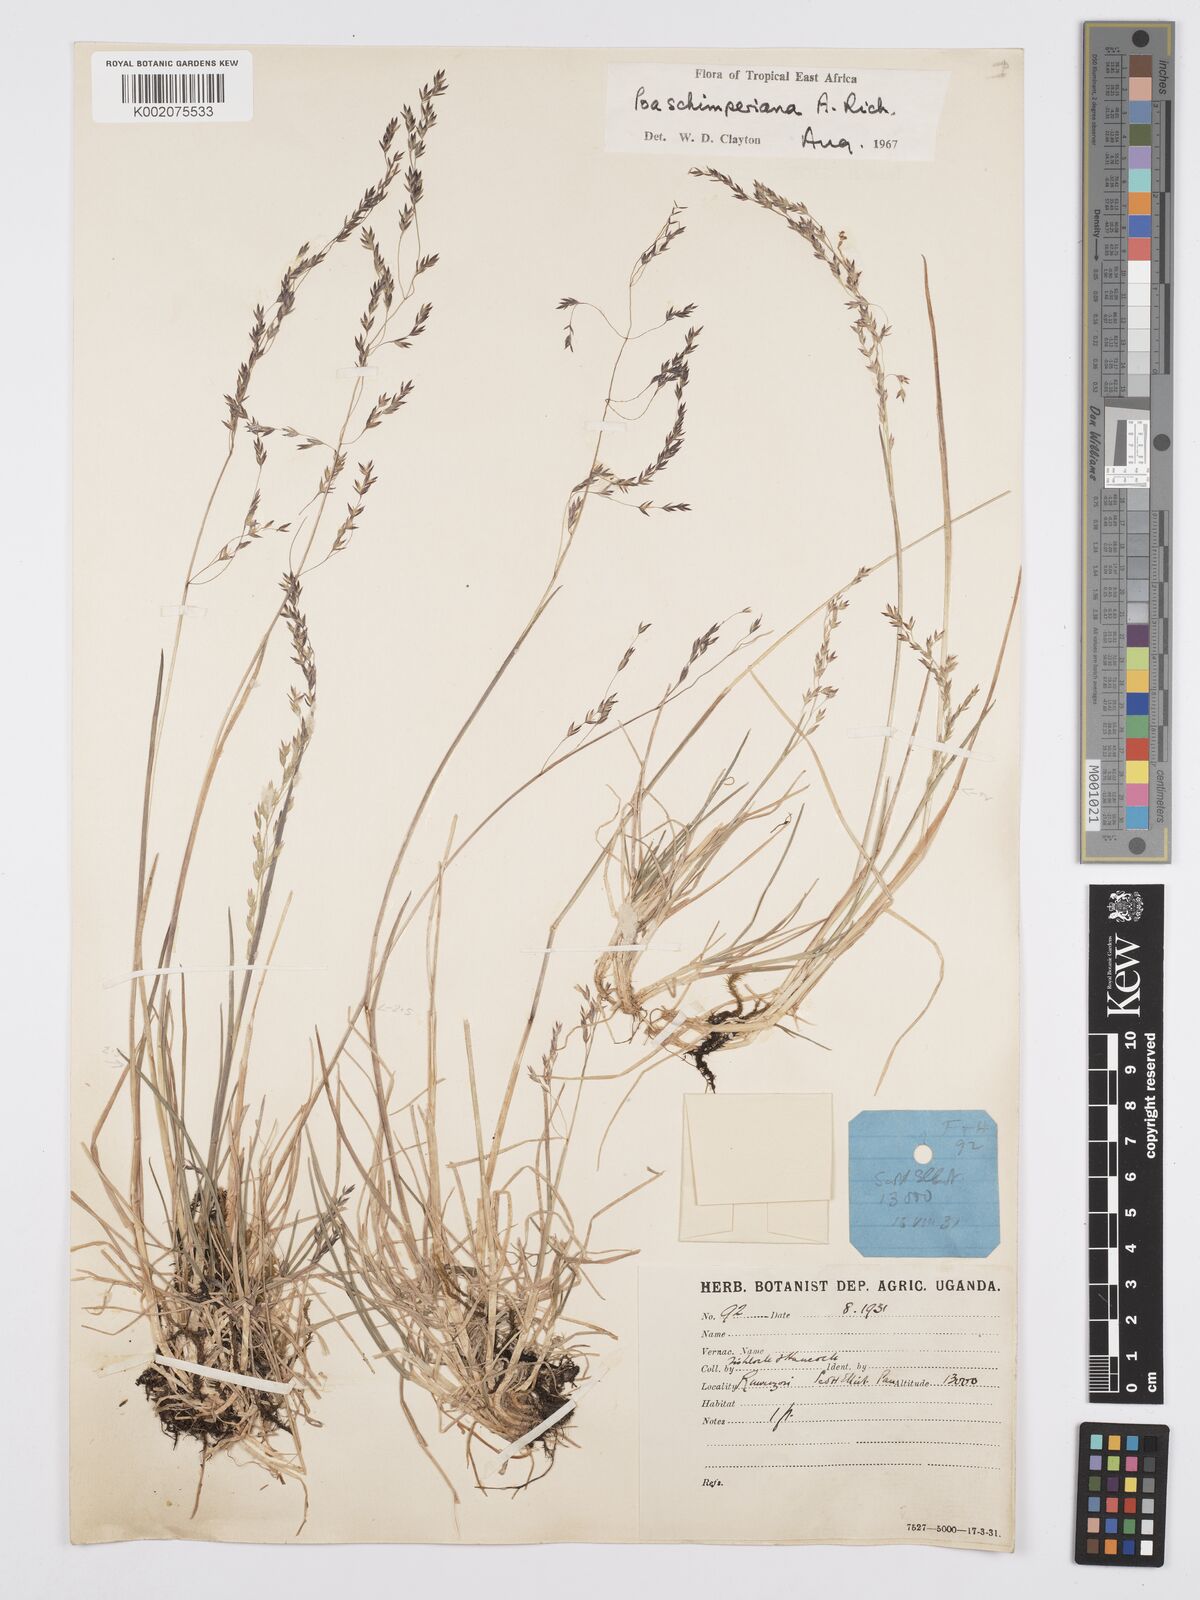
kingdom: Plantae
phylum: Tracheophyta
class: Liliopsida
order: Poales
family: Poaceae
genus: Poa
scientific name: Poa schimperiana
